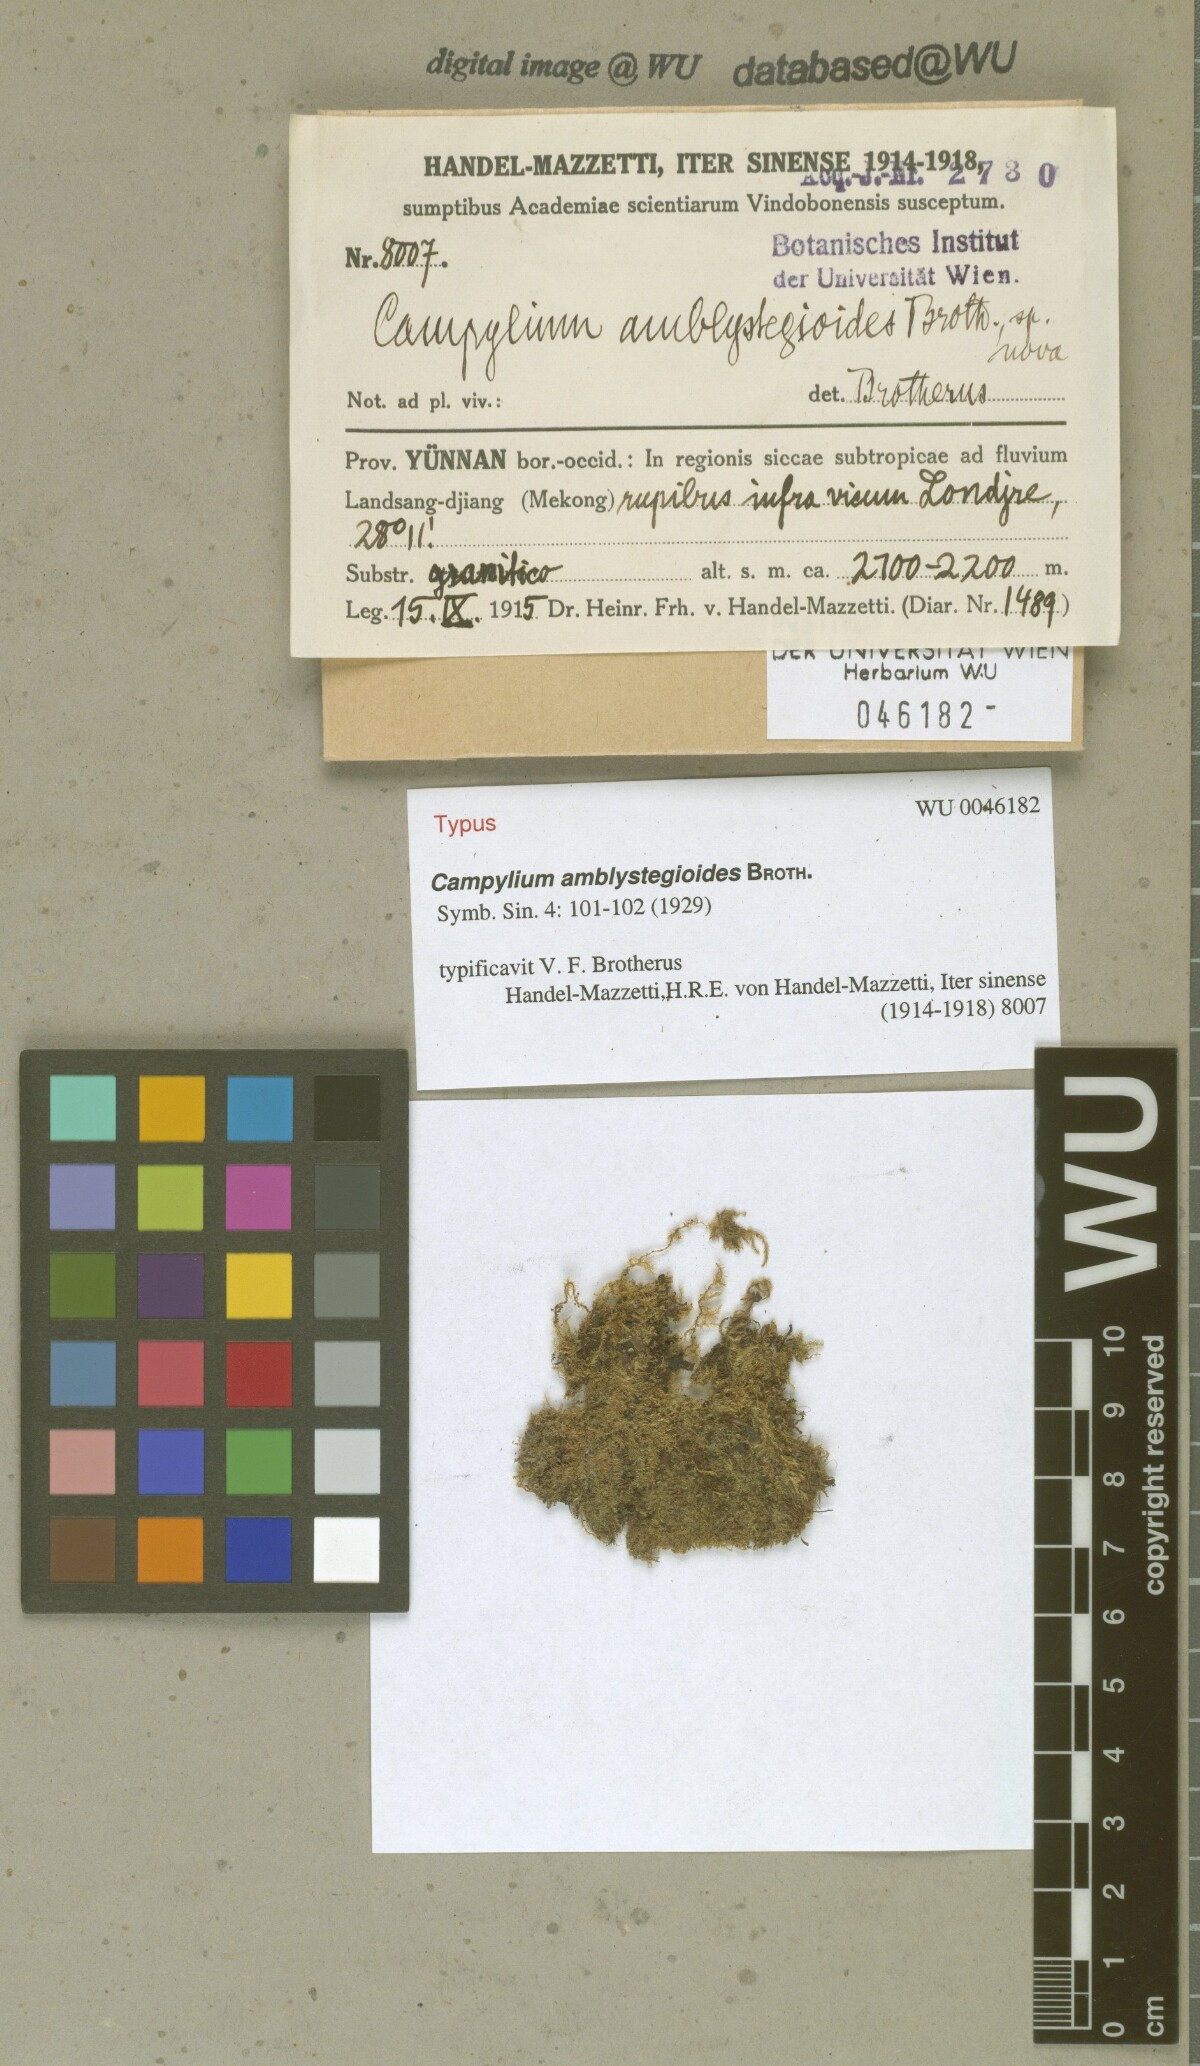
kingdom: Plantae
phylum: Bryophyta
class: Bryopsida
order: Hypnales
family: Amblystegiaceae
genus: Campylium
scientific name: Campylium amblystegioides
